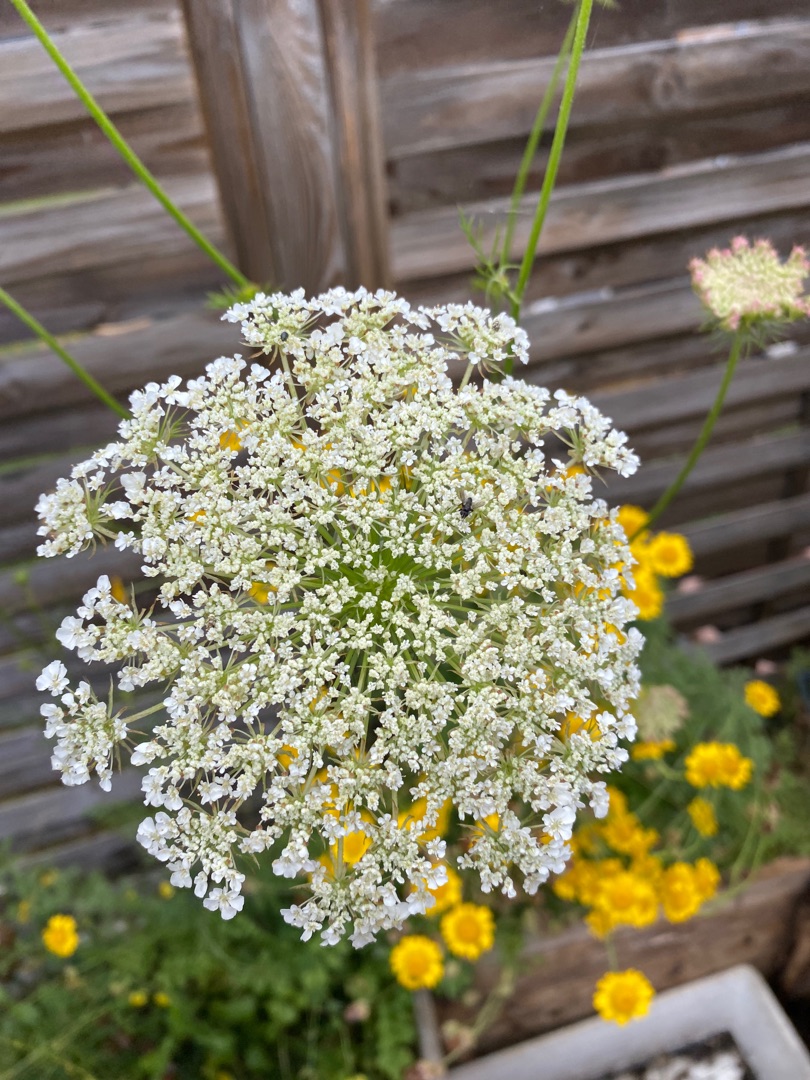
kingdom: Plantae
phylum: Tracheophyta
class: Magnoliopsida
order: Apiales
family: Apiaceae
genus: Daucus
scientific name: Daucus carota
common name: Gulerod
